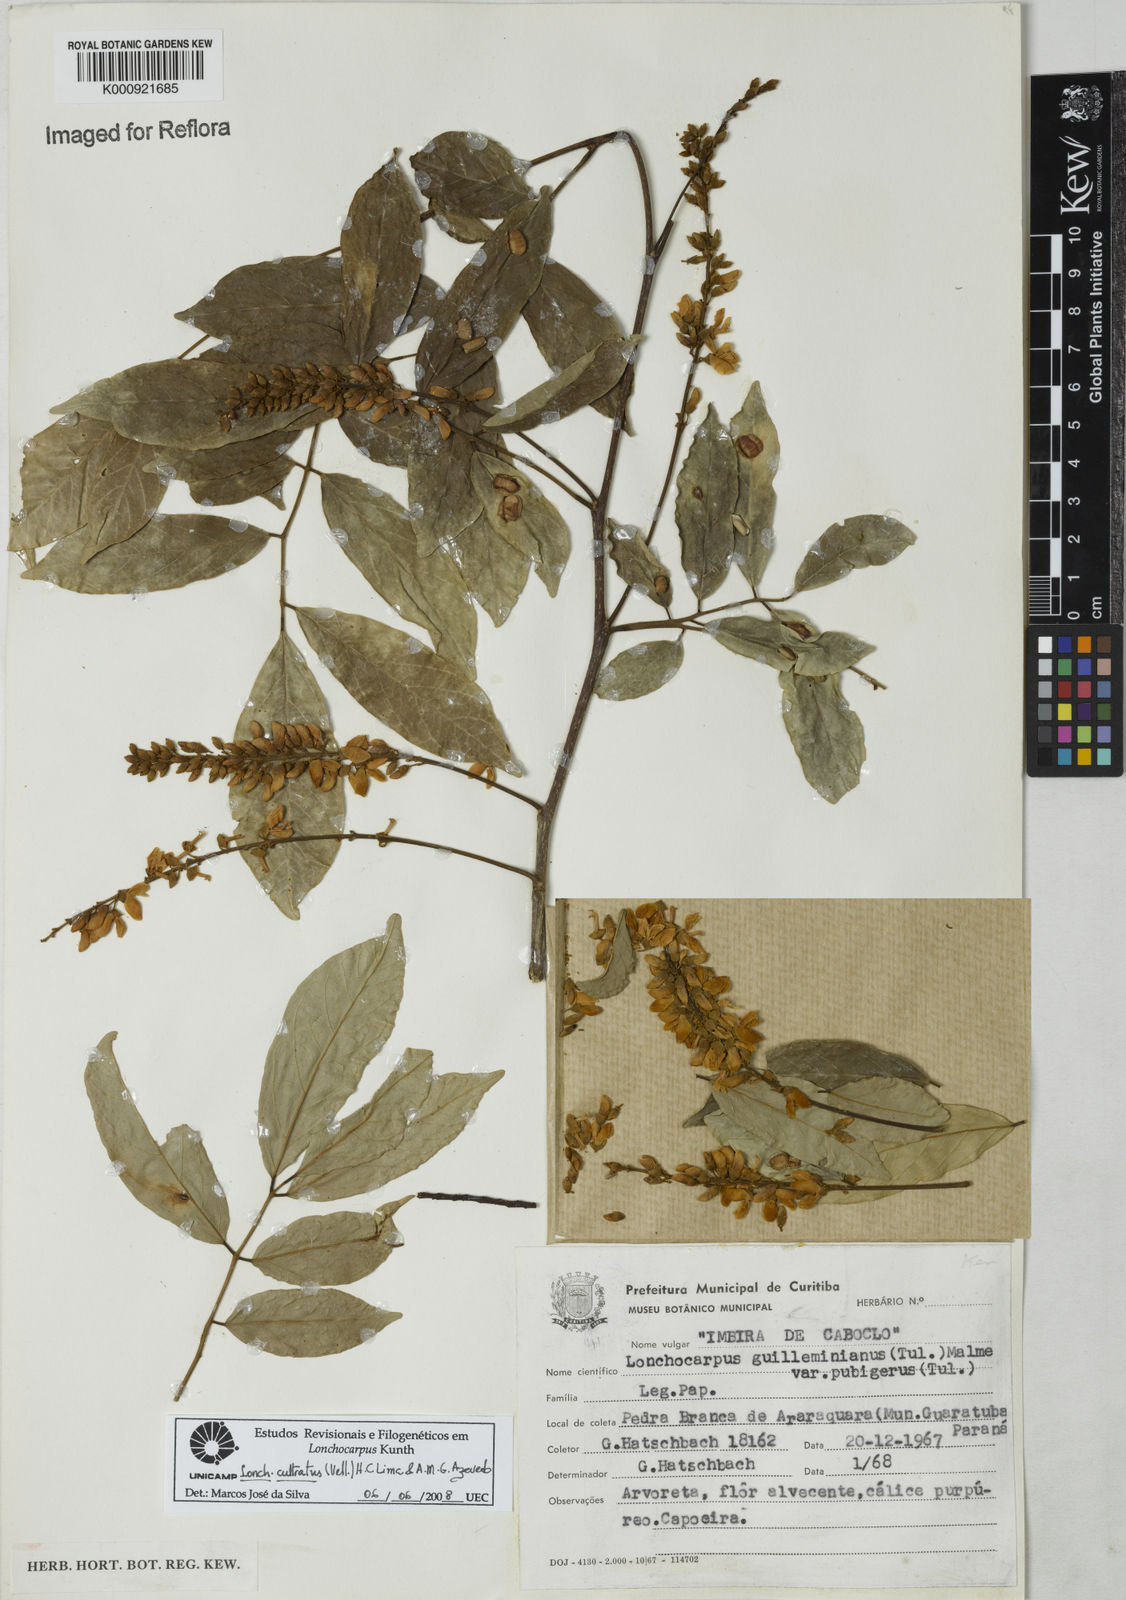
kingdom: Plantae
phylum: Tracheophyta
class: Magnoliopsida
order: Fabales
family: Fabaceae
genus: Lonchocarpus
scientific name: Lonchocarpus cultratus
